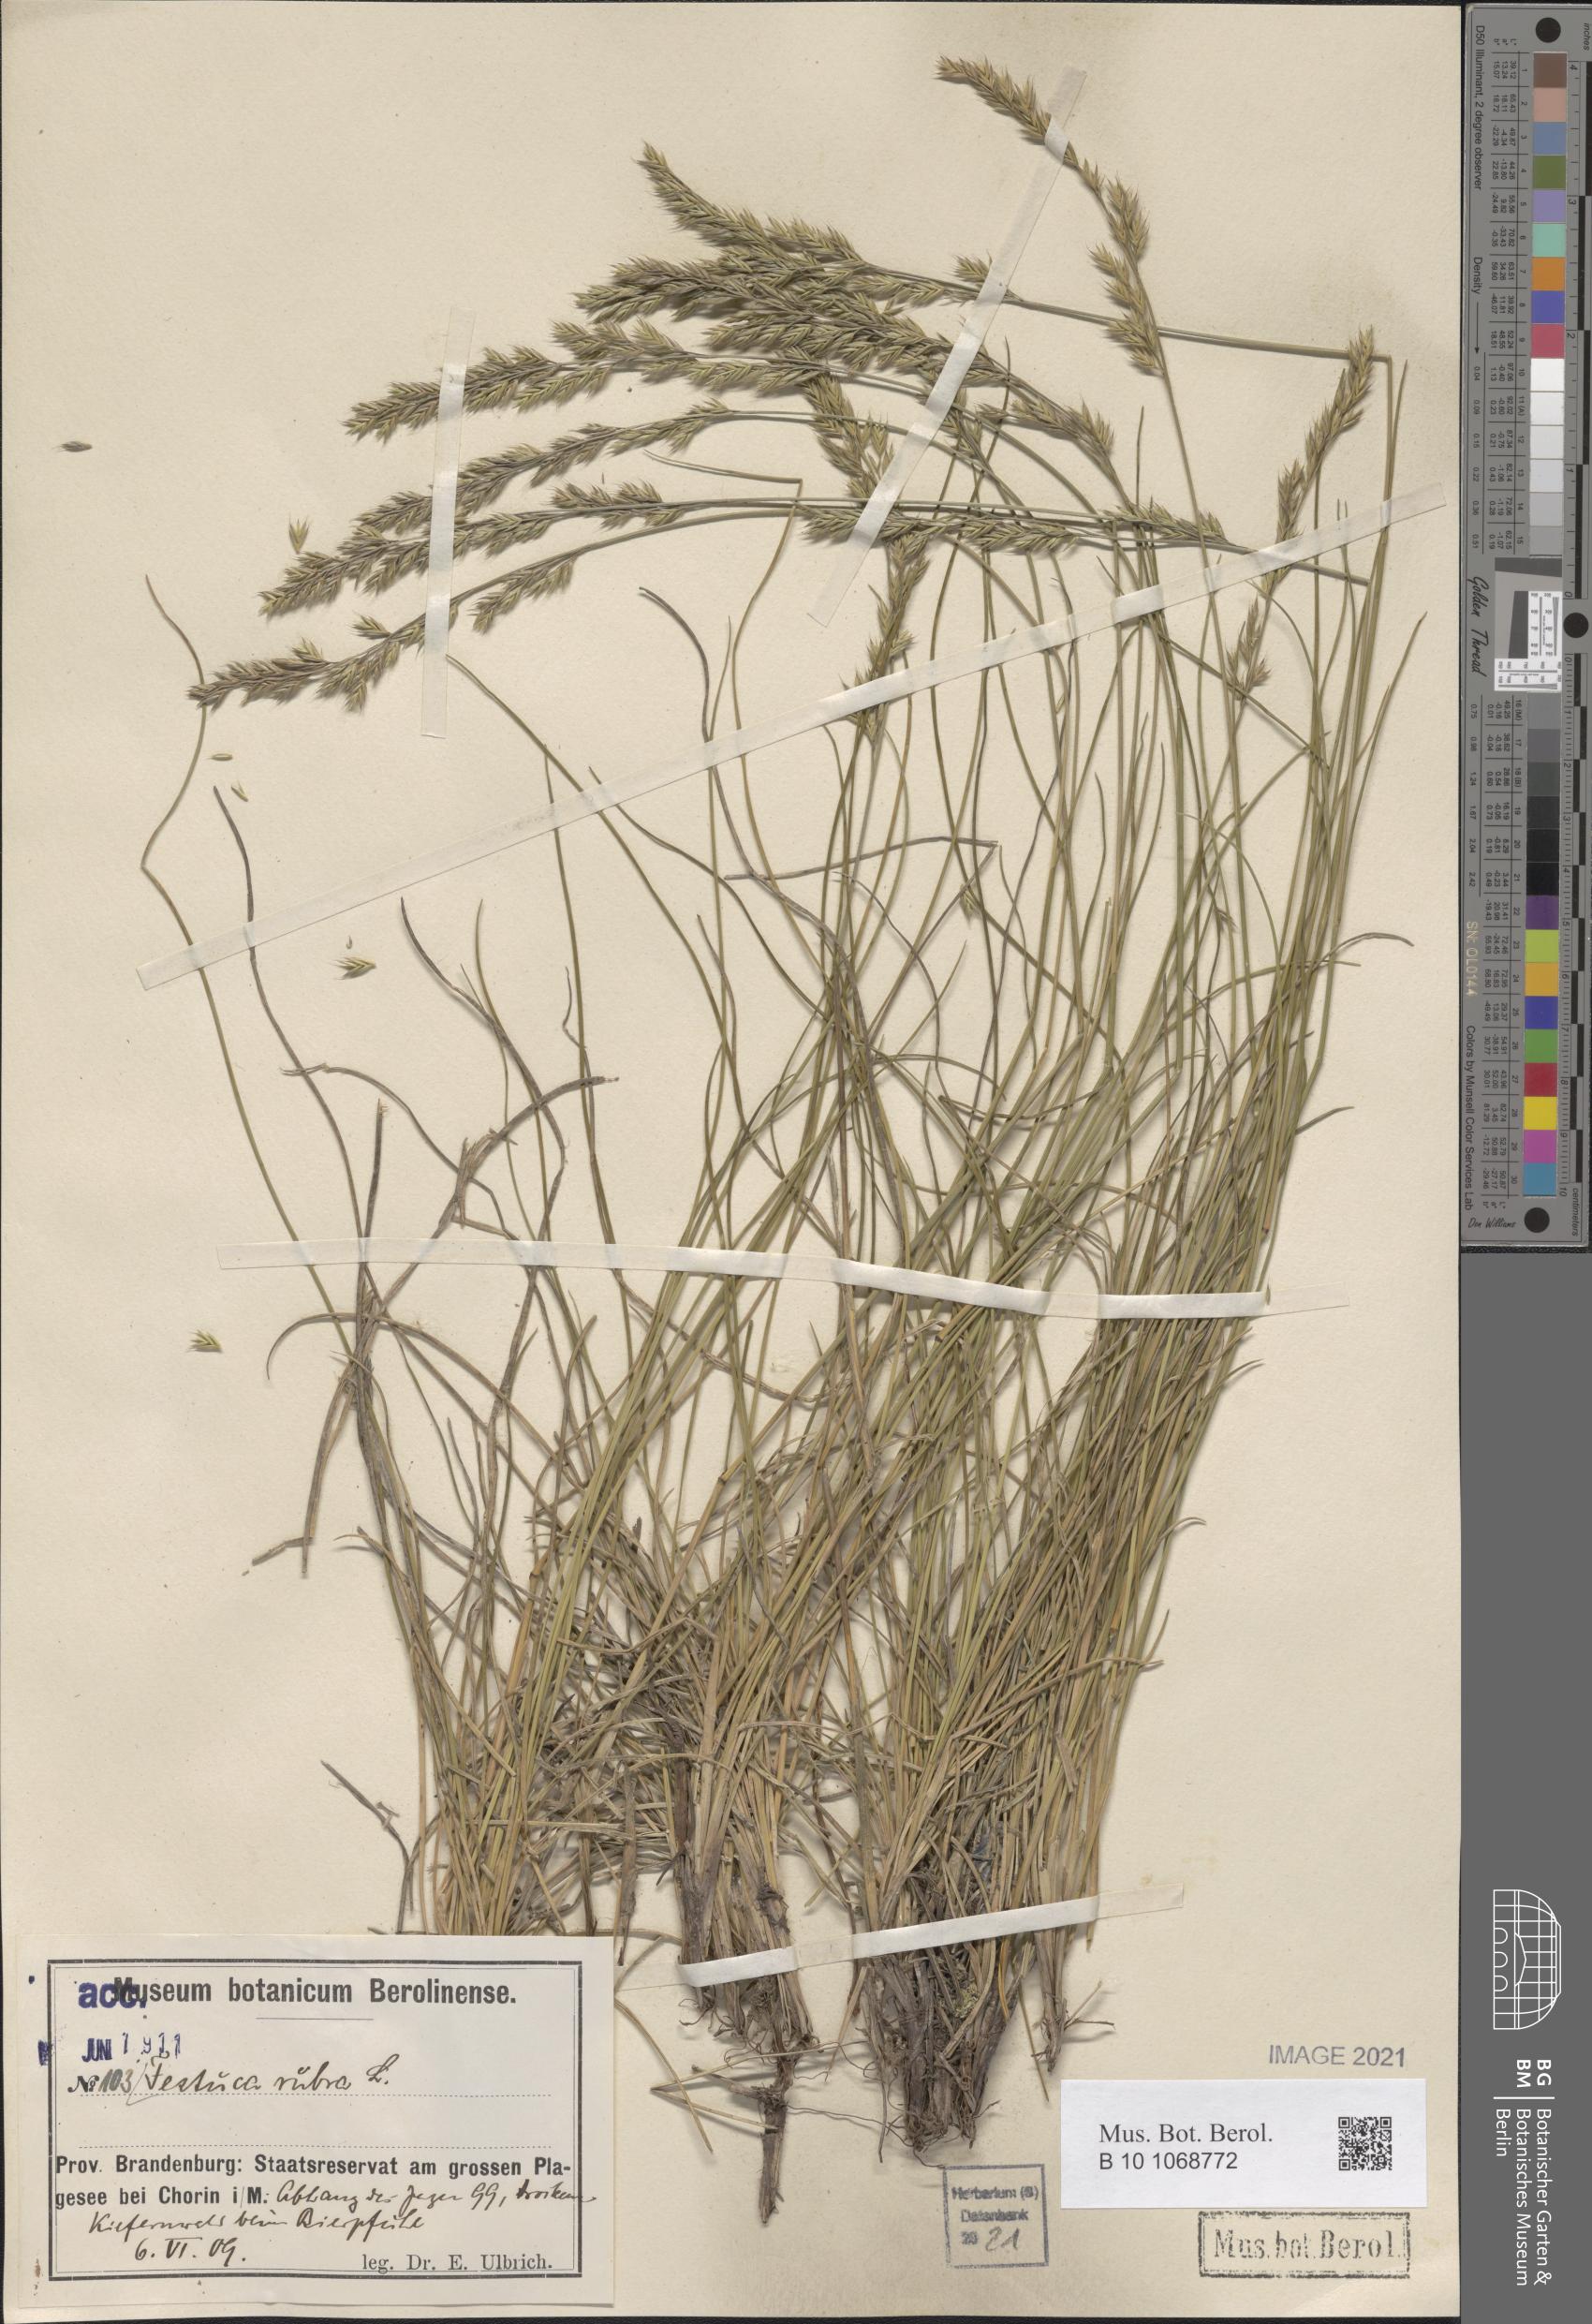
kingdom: Plantae
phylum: Tracheophyta
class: Liliopsida
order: Poales
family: Poaceae
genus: Festuca
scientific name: Festuca rubra
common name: Red fescue
